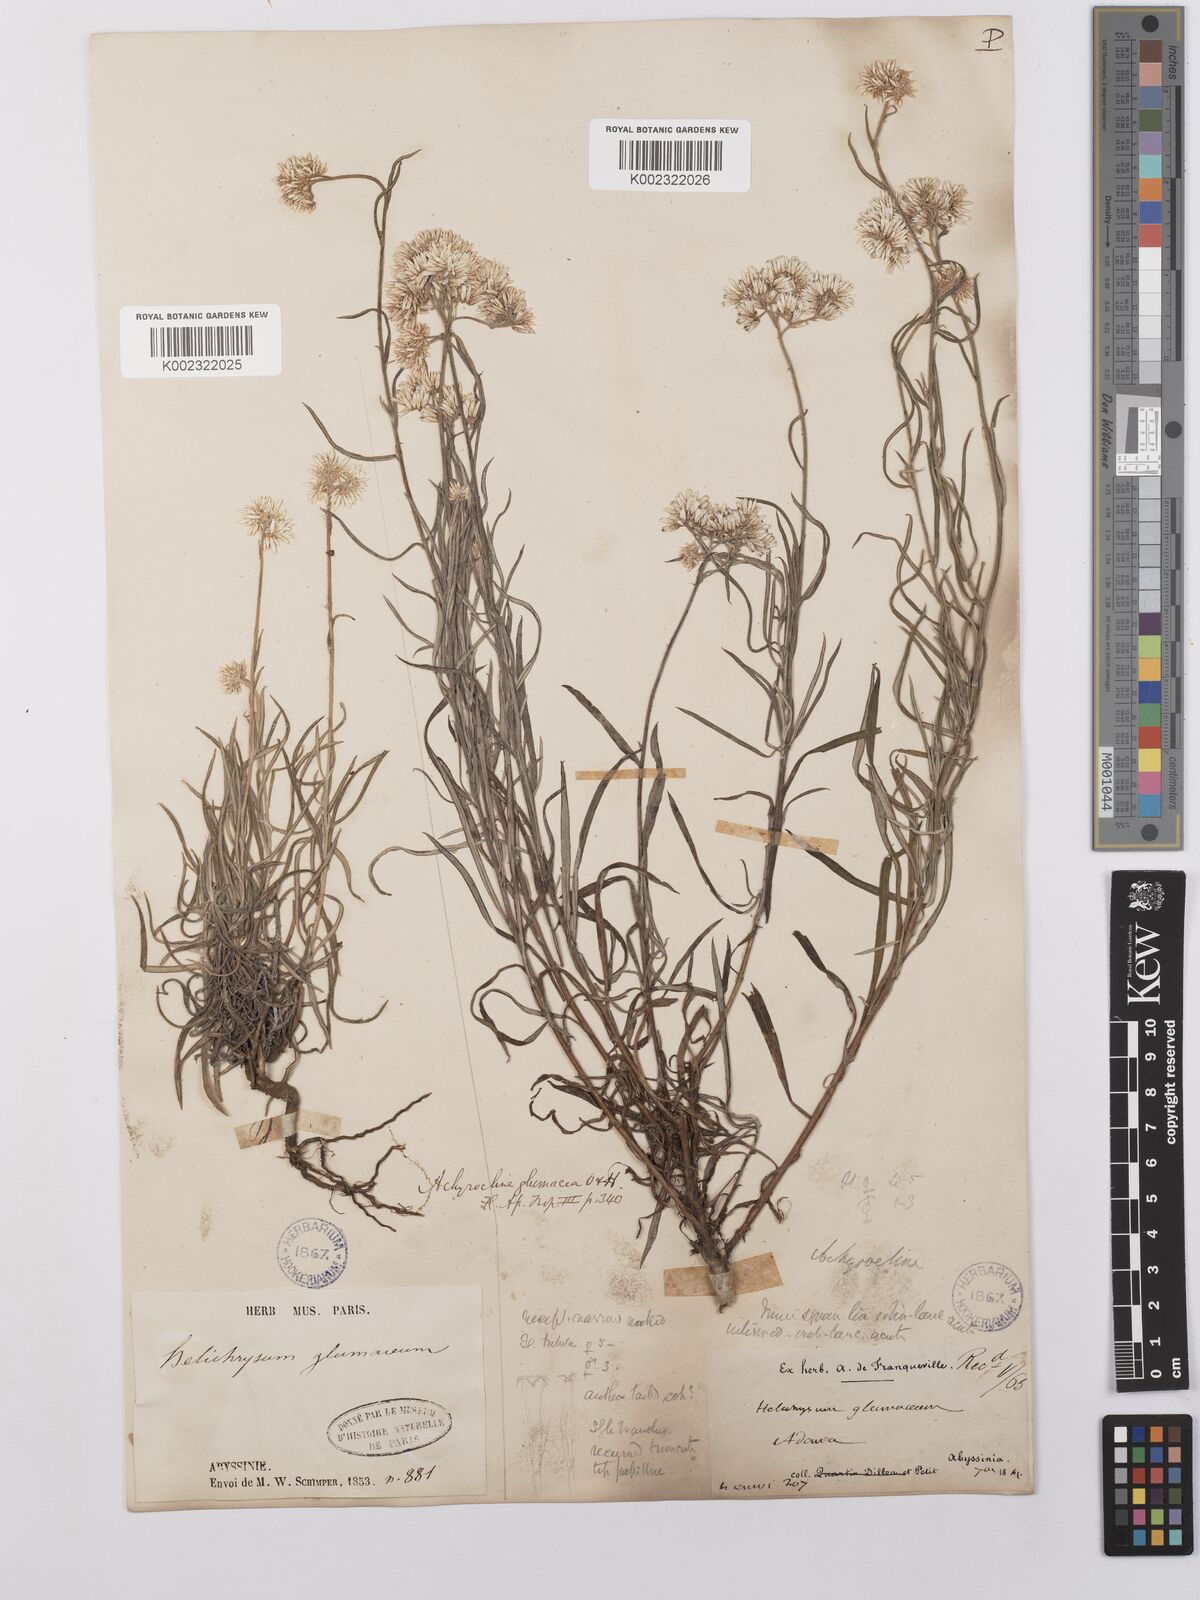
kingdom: Plantae
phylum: Tracheophyta
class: Magnoliopsida
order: Asterales
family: Asteraceae
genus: Helichrysum
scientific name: Helichrysum glumaceum
